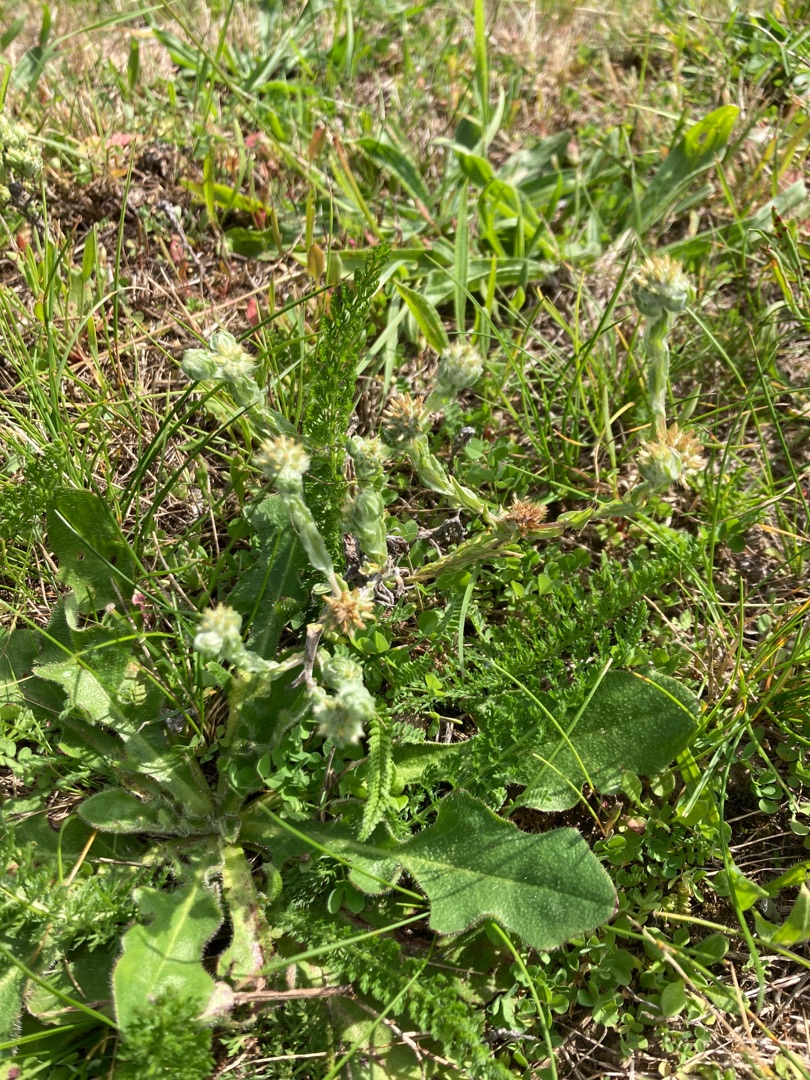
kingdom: Plantae
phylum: Tracheophyta
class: Magnoliopsida
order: Asterales
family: Asteraceae
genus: Filago
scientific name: Filago germanica
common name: Kugle-museurt
